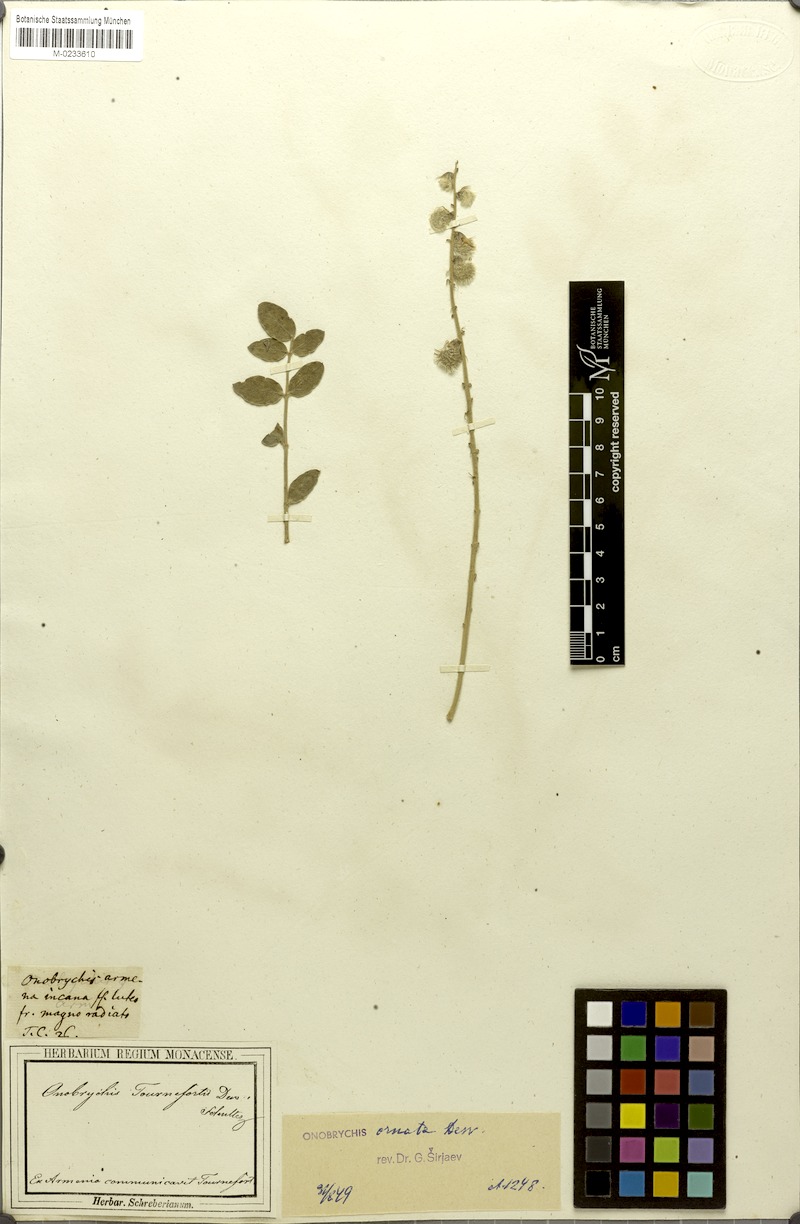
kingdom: Plantae
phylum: Tracheophyta
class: Magnoliopsida
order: Fabales
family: Fabaceae
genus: Onobrychis
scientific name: Onobrychis tournefortii
